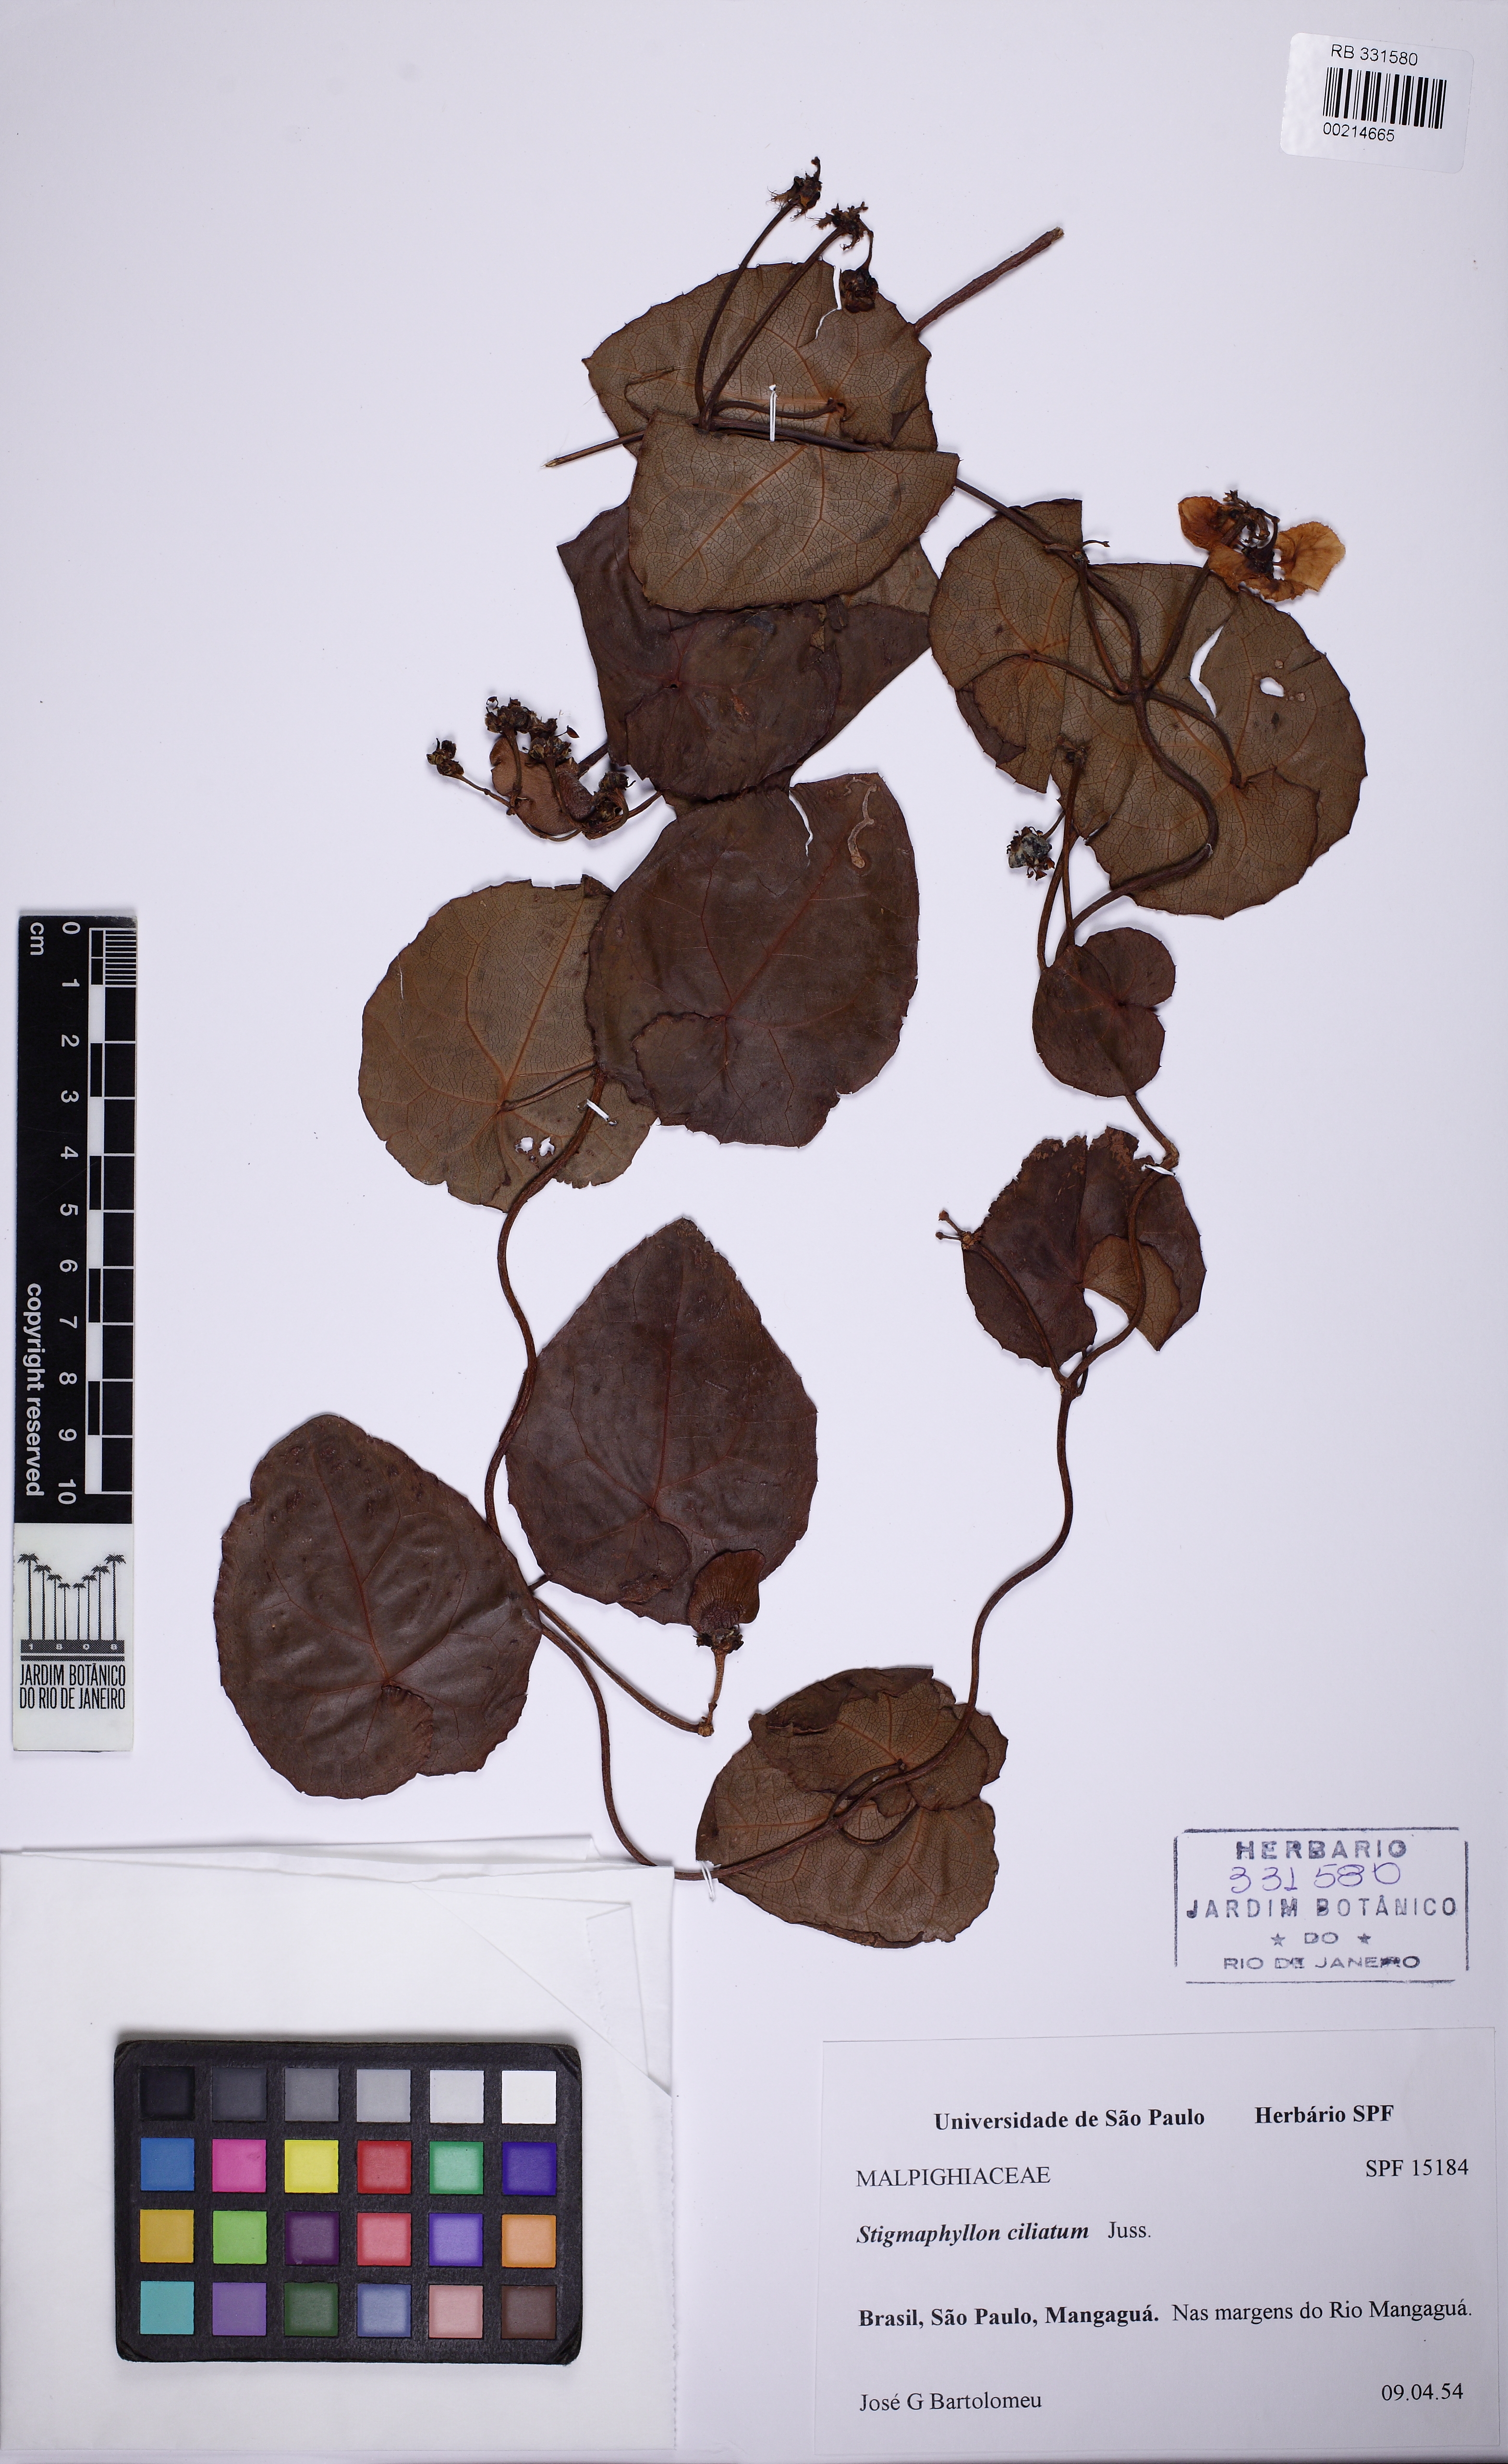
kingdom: Plantae
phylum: Tracheophyta
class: Magnoliopsida
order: Malpighiales
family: Malpighiaceae
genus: Stigmaphyllon
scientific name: Stigmaphyllon ciliatum
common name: Amazonvine
